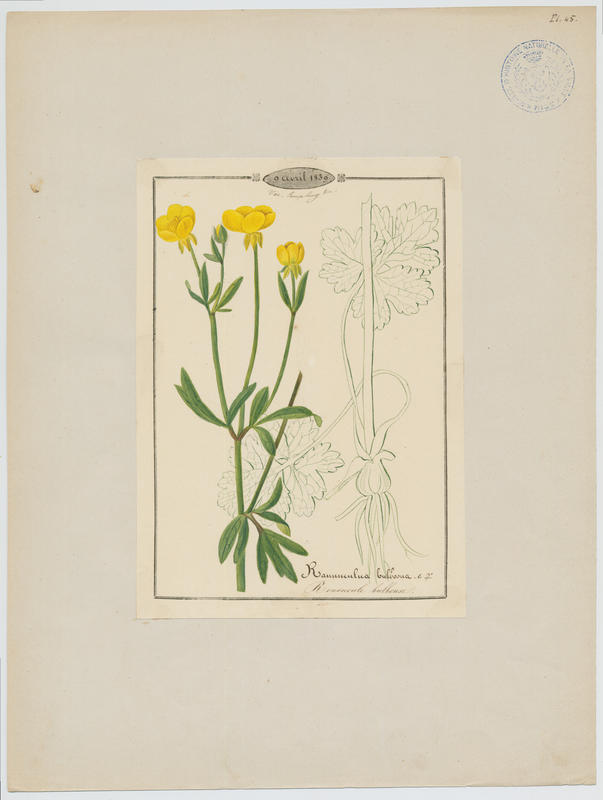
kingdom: Plantae
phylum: Tracheophyta
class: Magnoliopsida
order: Ranunculales
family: Ranunculaceae
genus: Ranunculus
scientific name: Ranunculus bulbosus
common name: Bulbous buttercup
